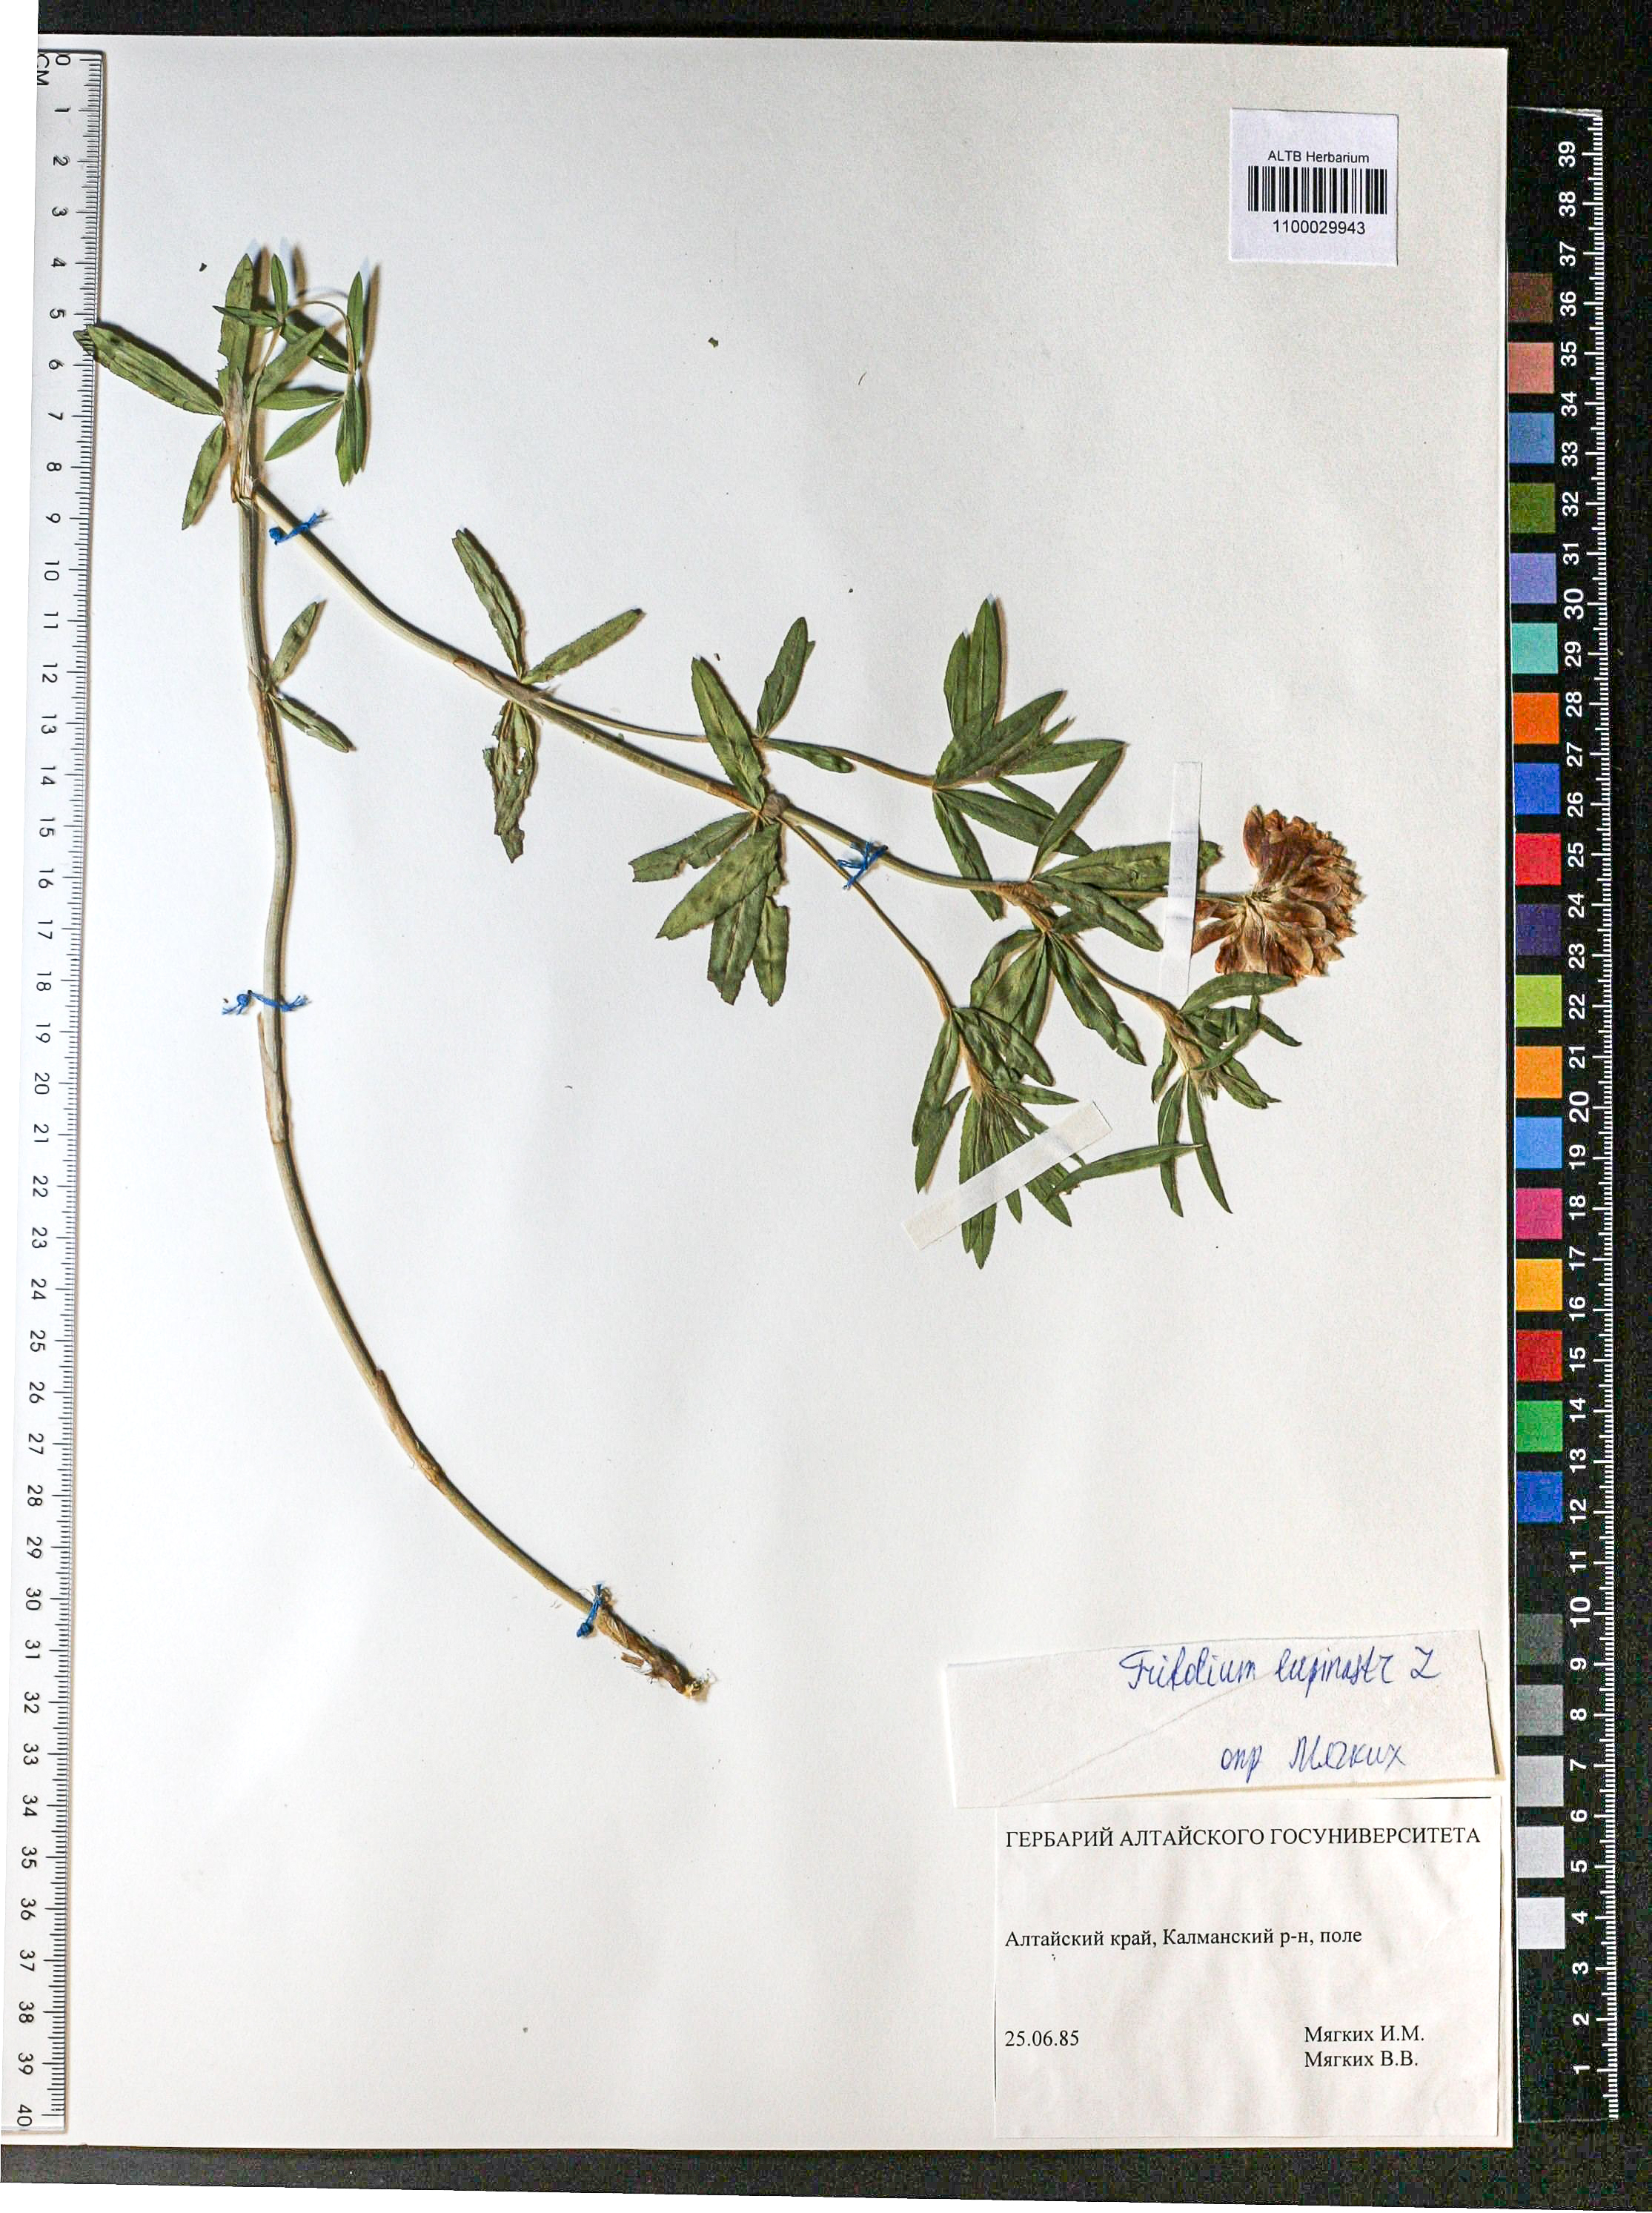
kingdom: Plantae
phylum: Tracheophyta
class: Magnoliopsida
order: Fabales
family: Fabaceae
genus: Trifolium
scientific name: Trifolium lupinaster
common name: Lupine clover
